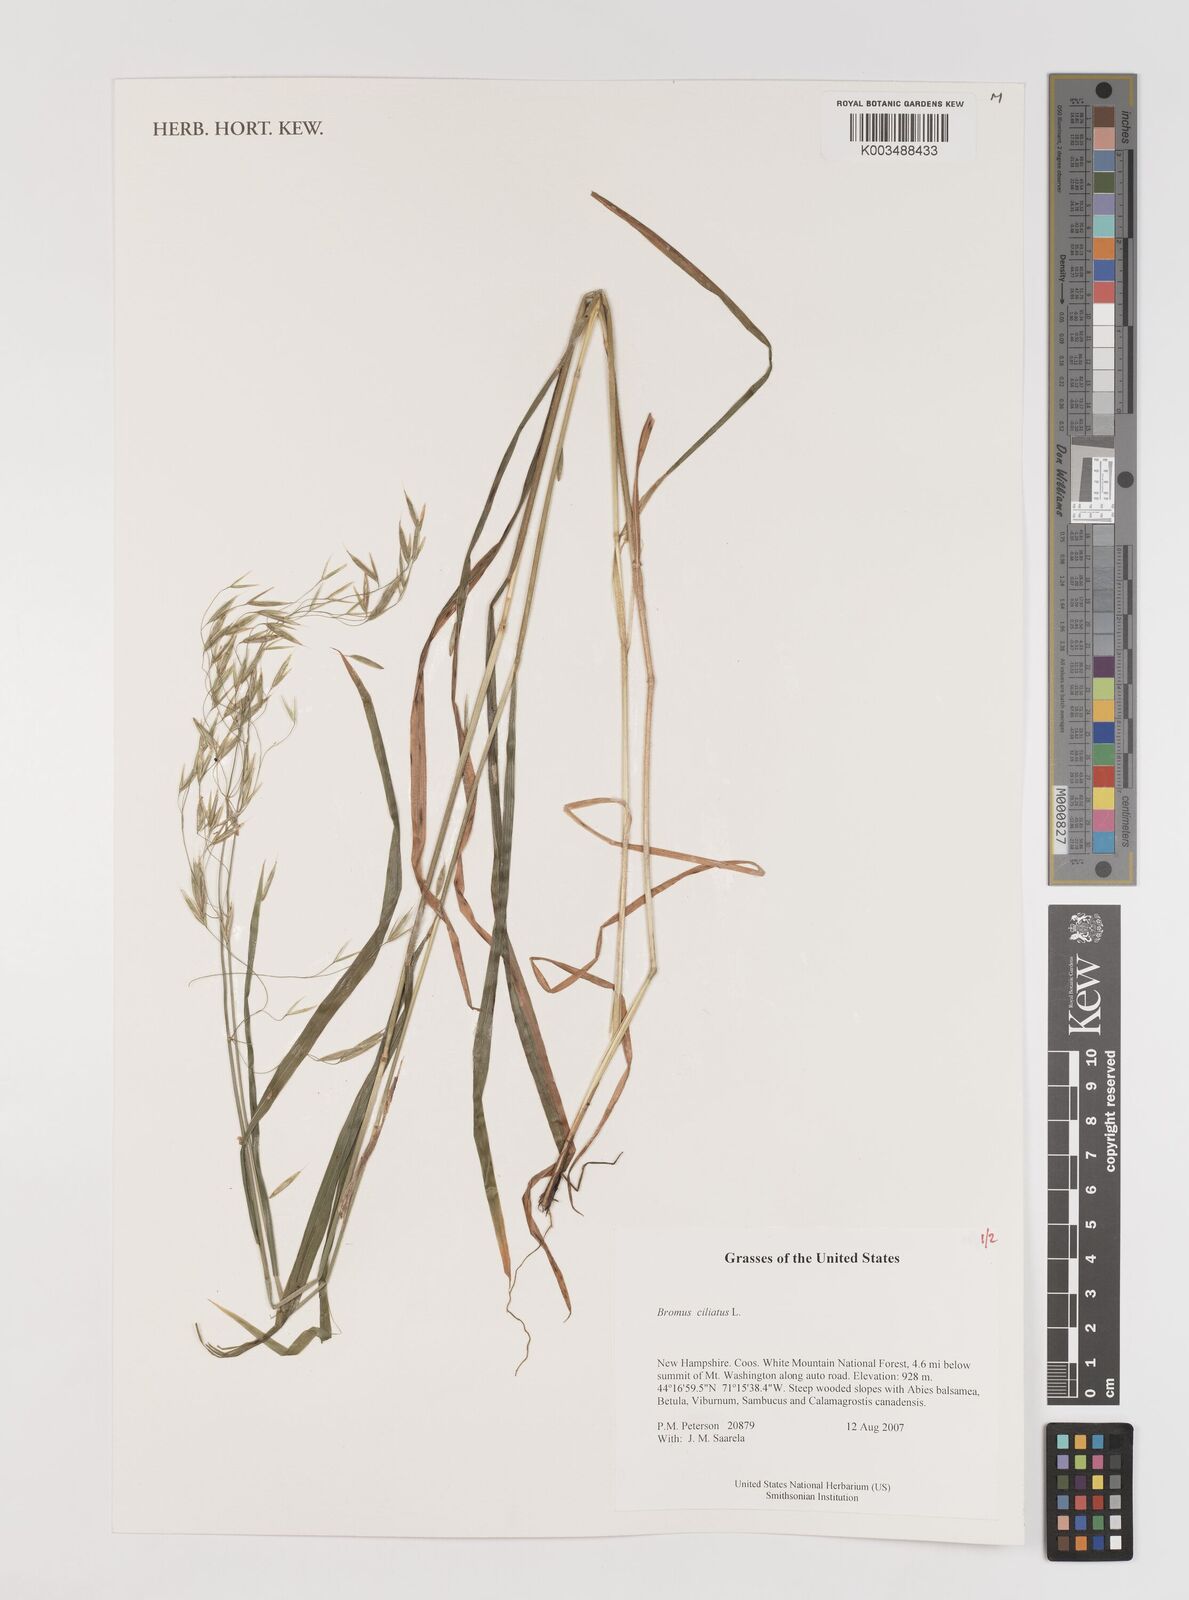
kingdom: Plantae
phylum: Tracheophyta
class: Liliopsida
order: Poales
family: Poaceae
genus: Bromus
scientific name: Bromus ciliatus
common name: Fringe brome
